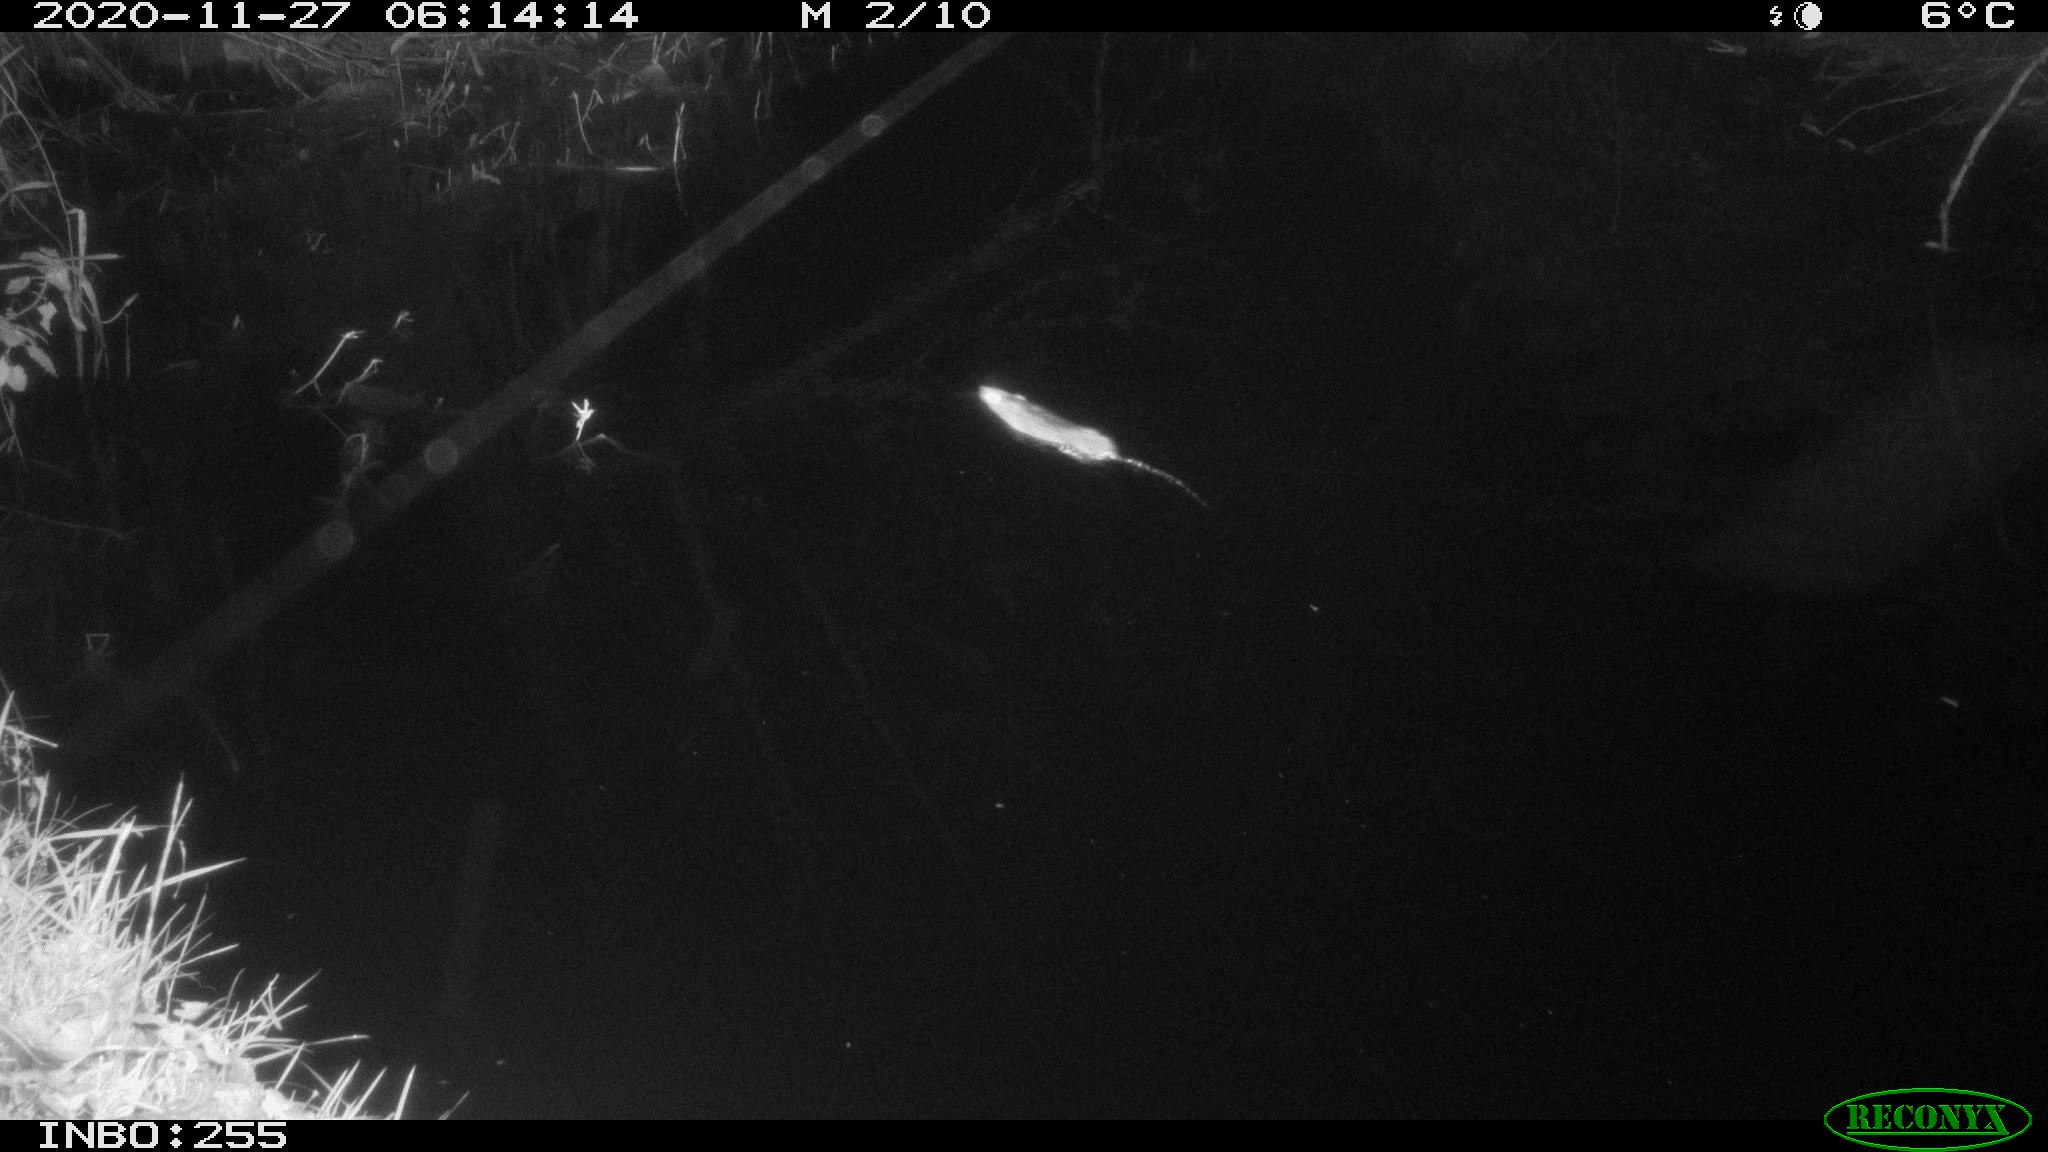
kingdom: Animalia
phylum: Chordata
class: Mammalia
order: Rodentia
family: Muridae
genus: Rattus
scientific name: Rattus norvegicus
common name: Brown rat
